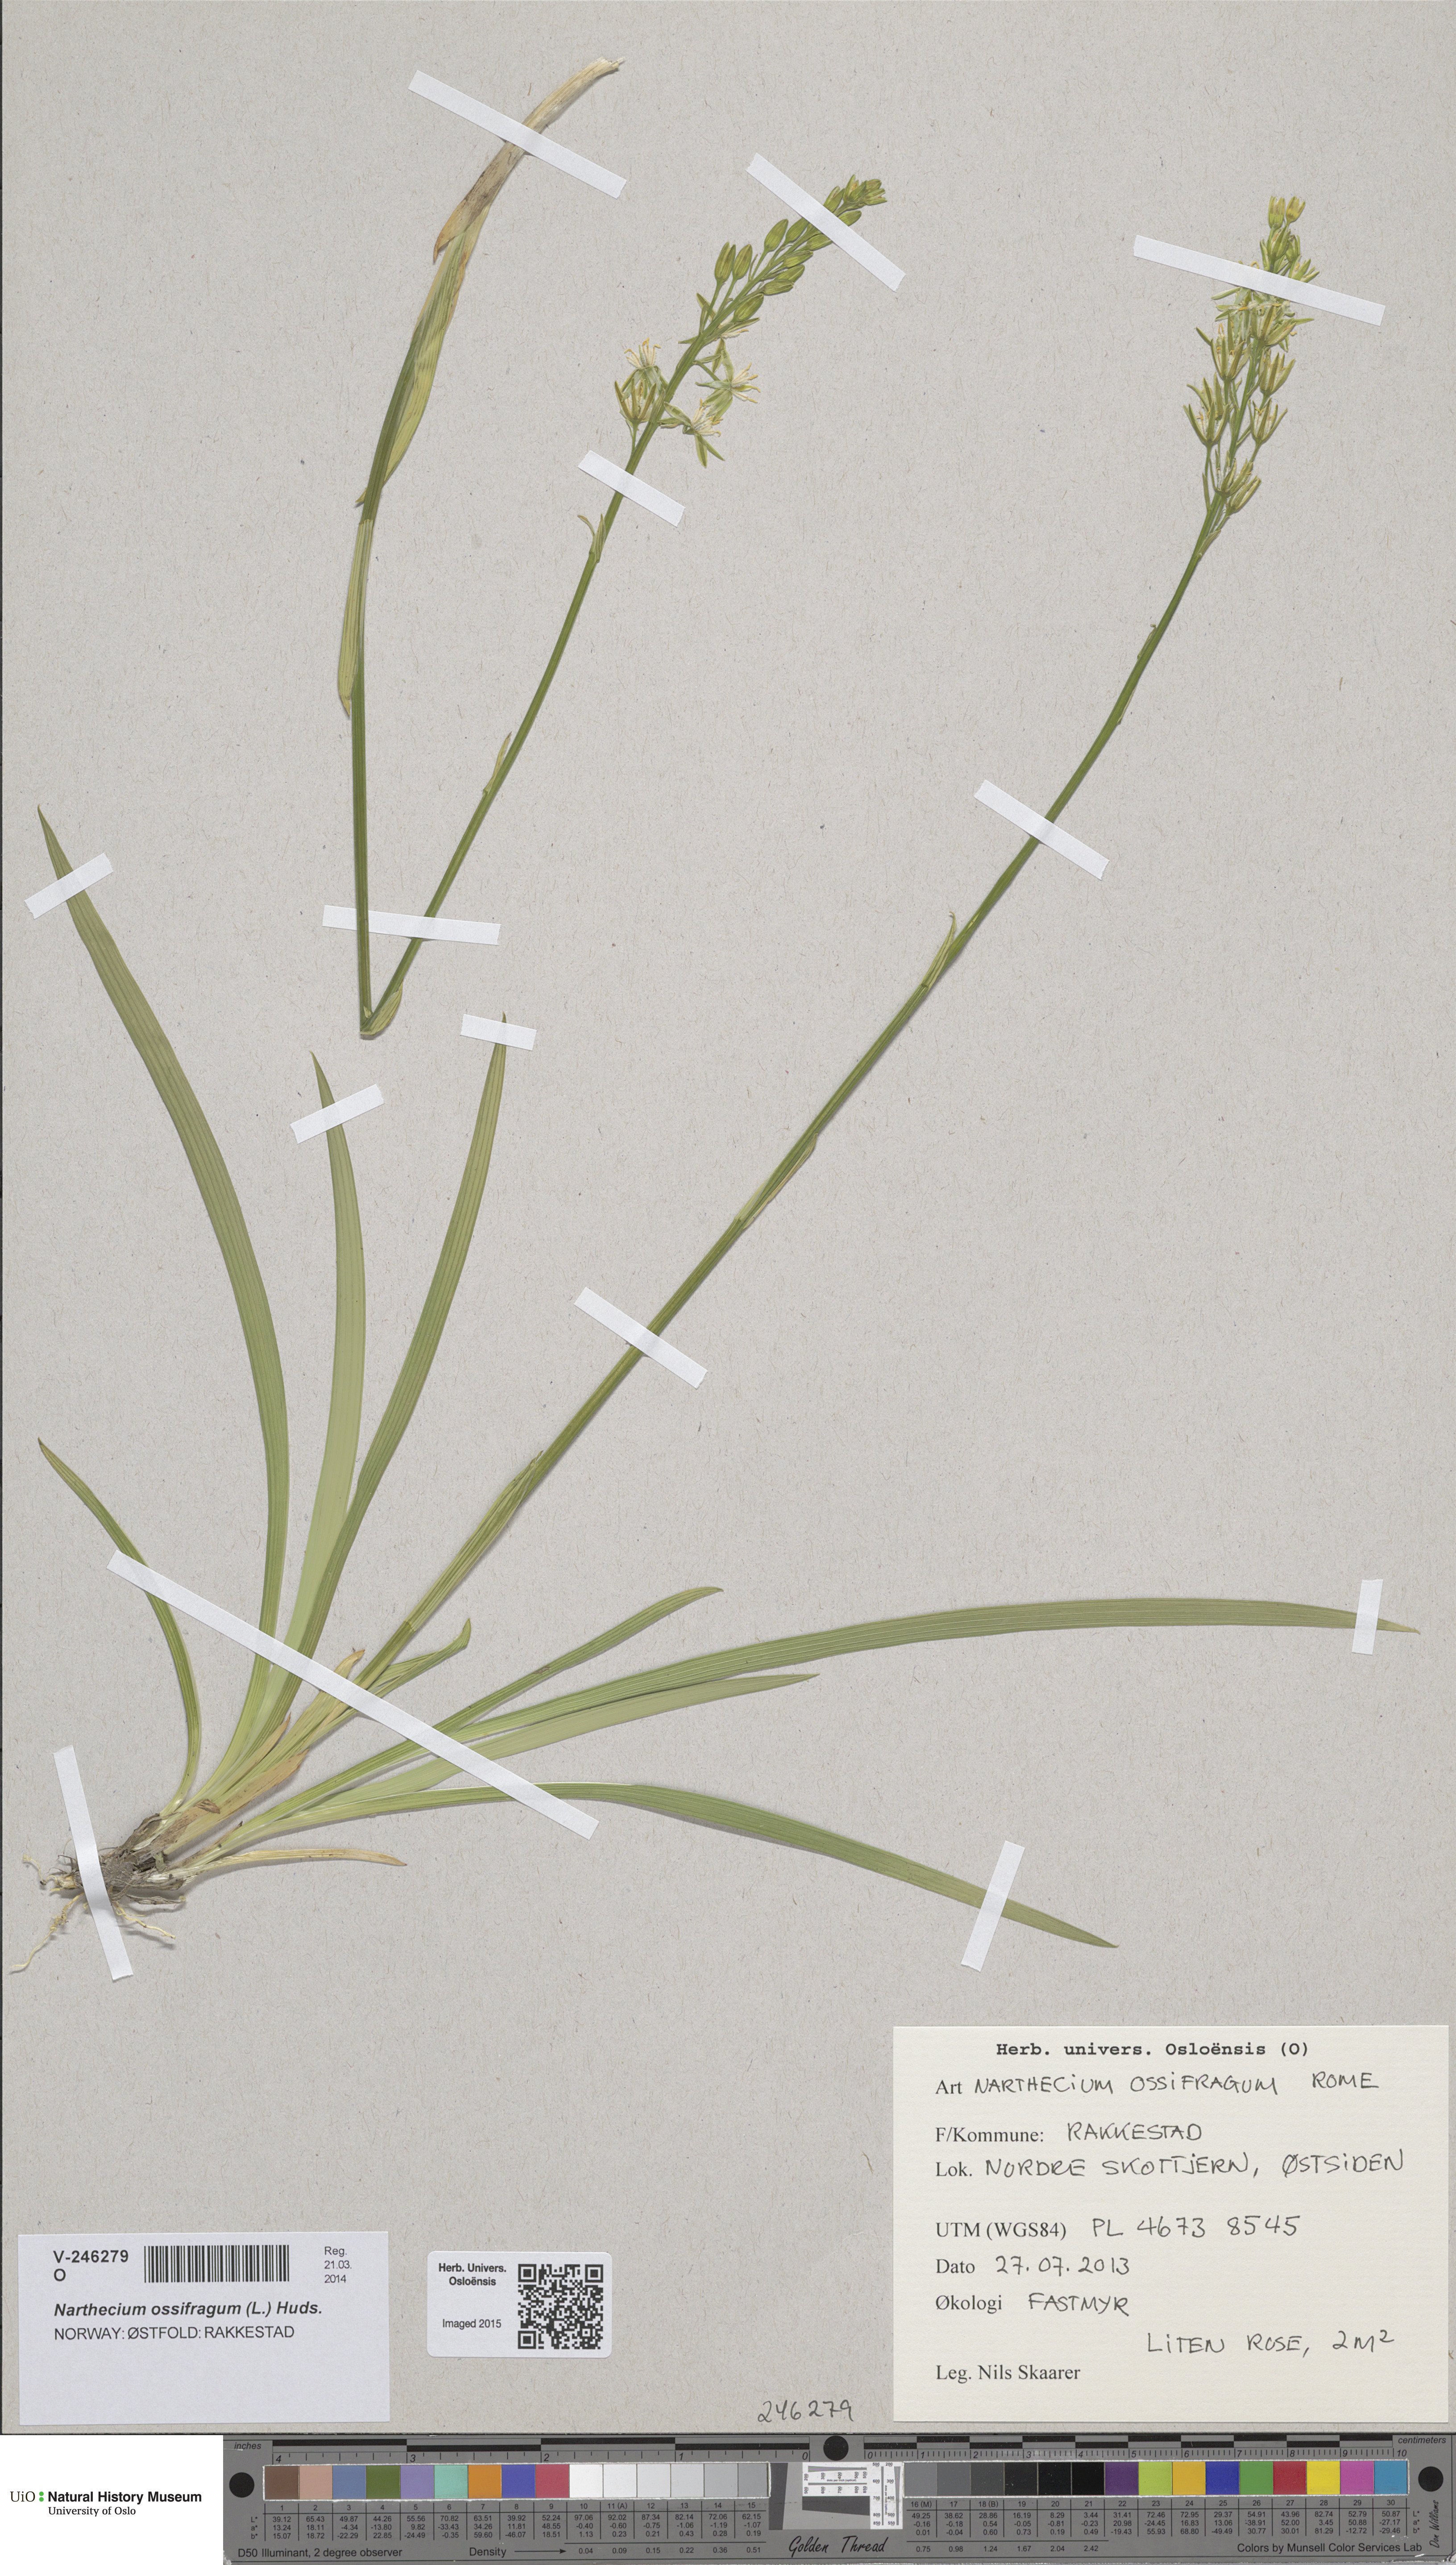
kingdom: Plantae
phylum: Tracheophyta
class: Liliopsida
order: Dioscoreales
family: Nartheciaceae
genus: Narthecium
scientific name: Narthecium ossifragum
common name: Bog asphodel
